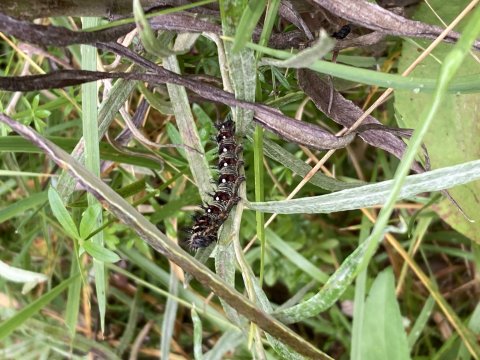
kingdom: Animalia
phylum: Arthropoda
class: Insecta
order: Lepidoptera
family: Nymphalidae
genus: Vanessa
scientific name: Vanessa virginiensis
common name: American Lady
